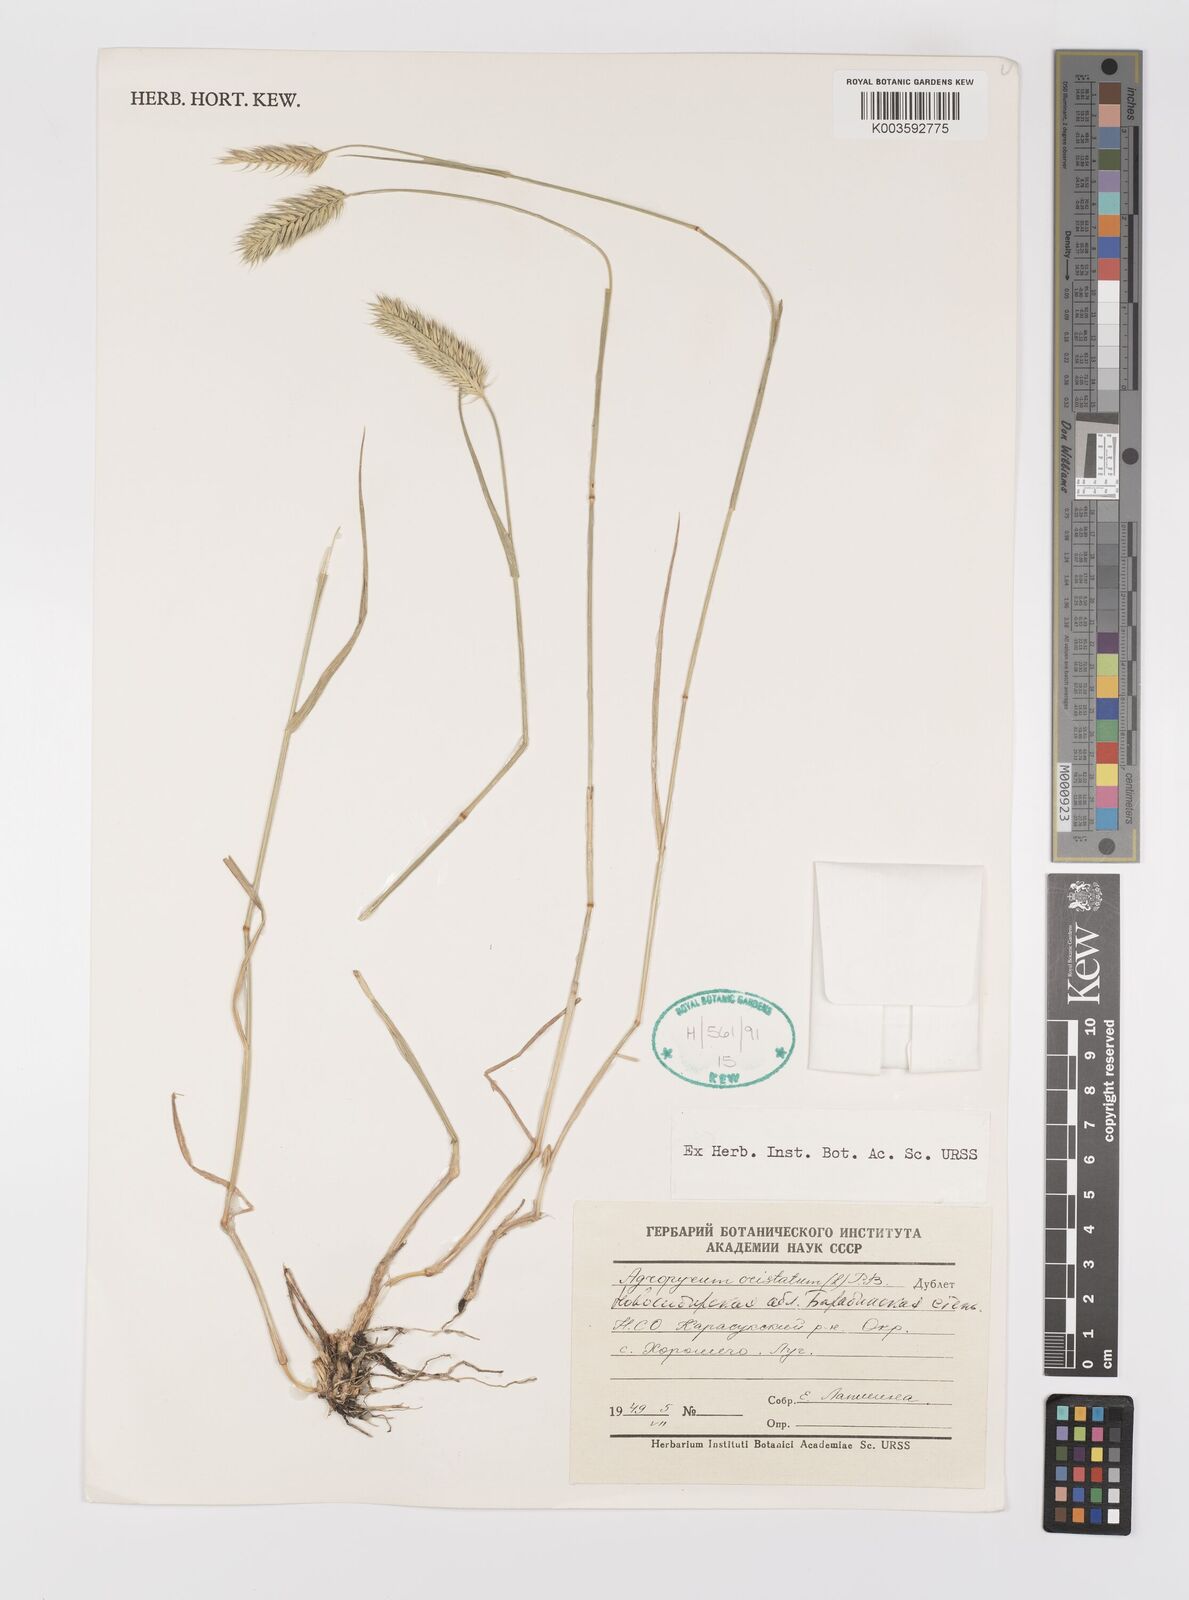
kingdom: Plantae
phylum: Tracheophyta
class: Liliopsida
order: Poales
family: Poaceae
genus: Agropyron
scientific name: Agropyron cristatum
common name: Crested wheatgrass
